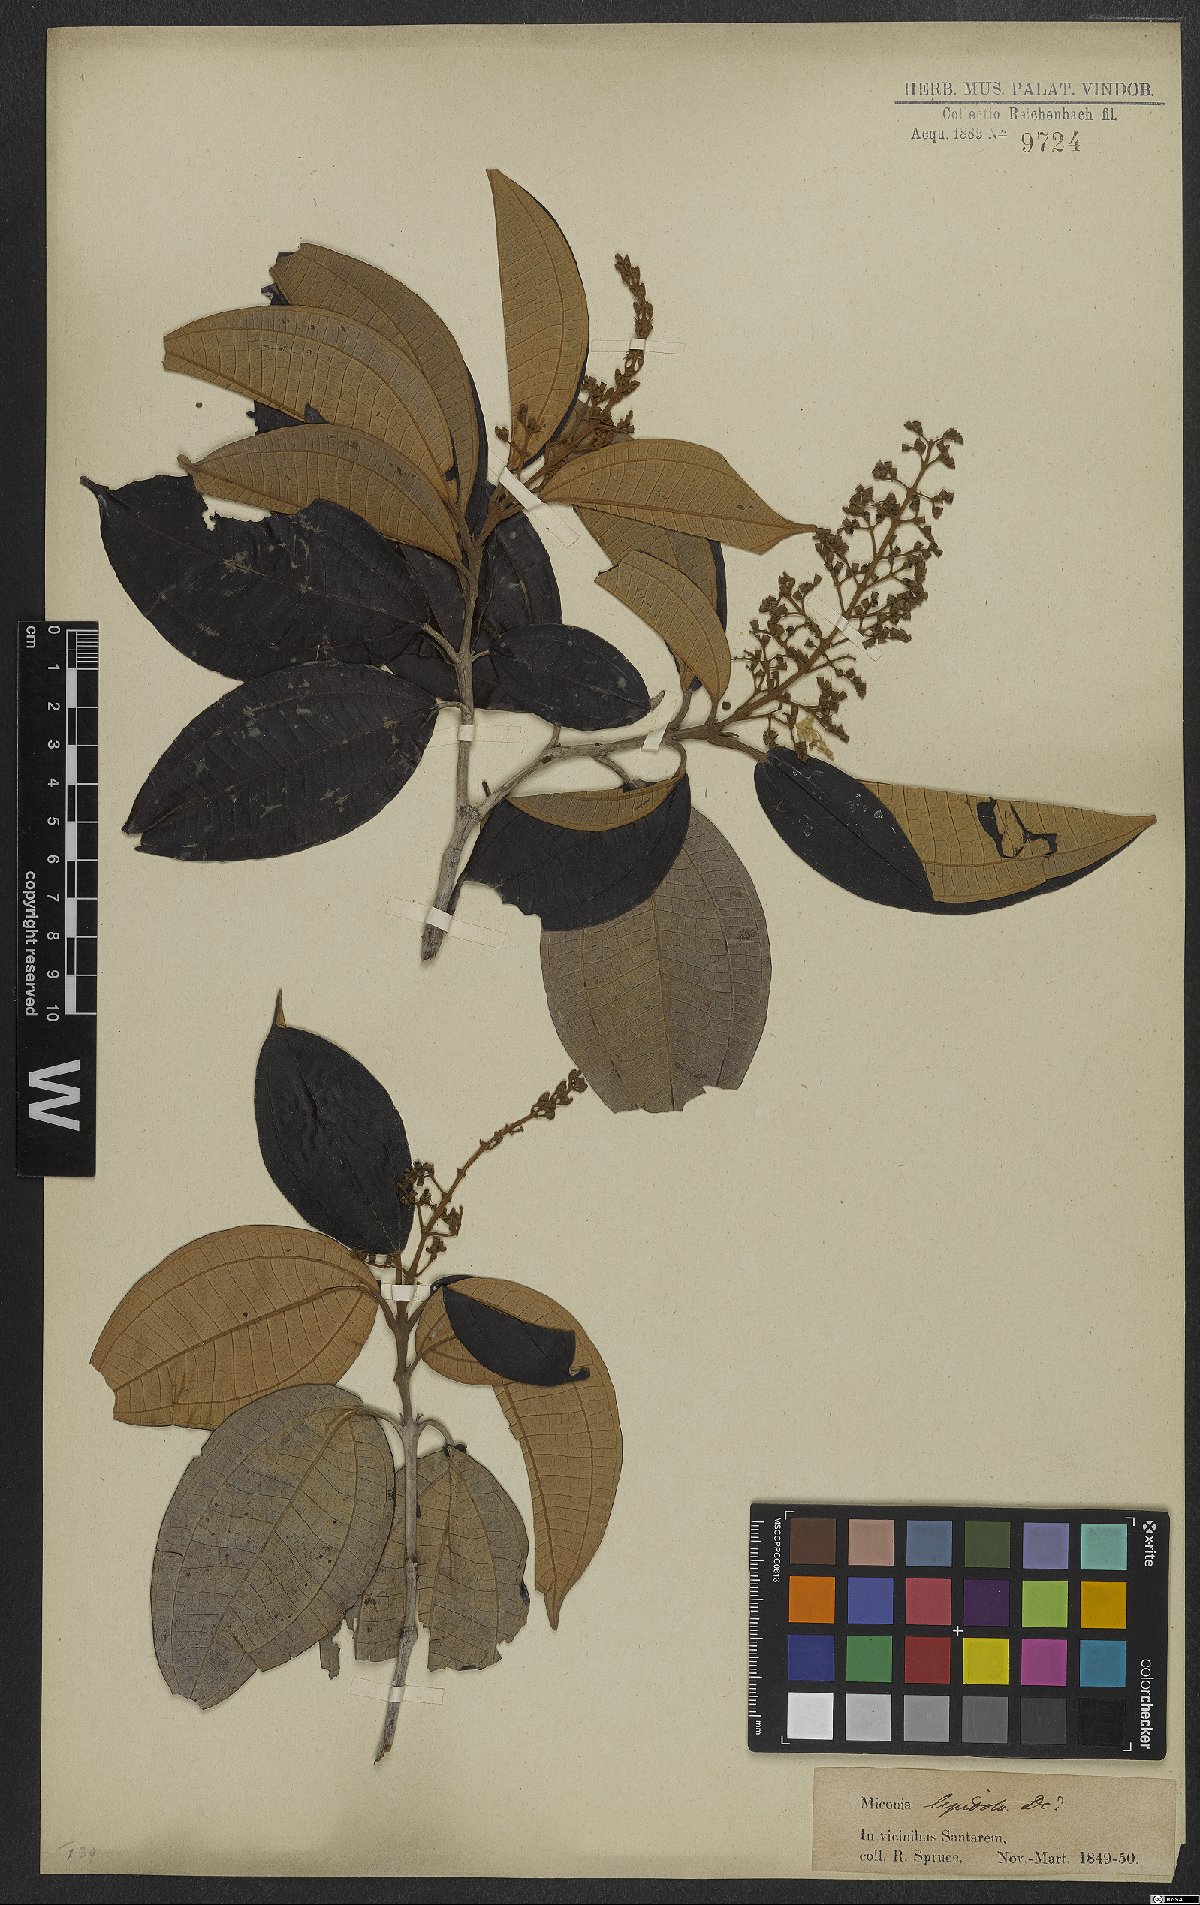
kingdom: Plantae
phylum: Tracheophyta
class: Magnoliopsida
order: Myrtales
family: Melastomataceae
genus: Miconia
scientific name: Miconia lepidota
